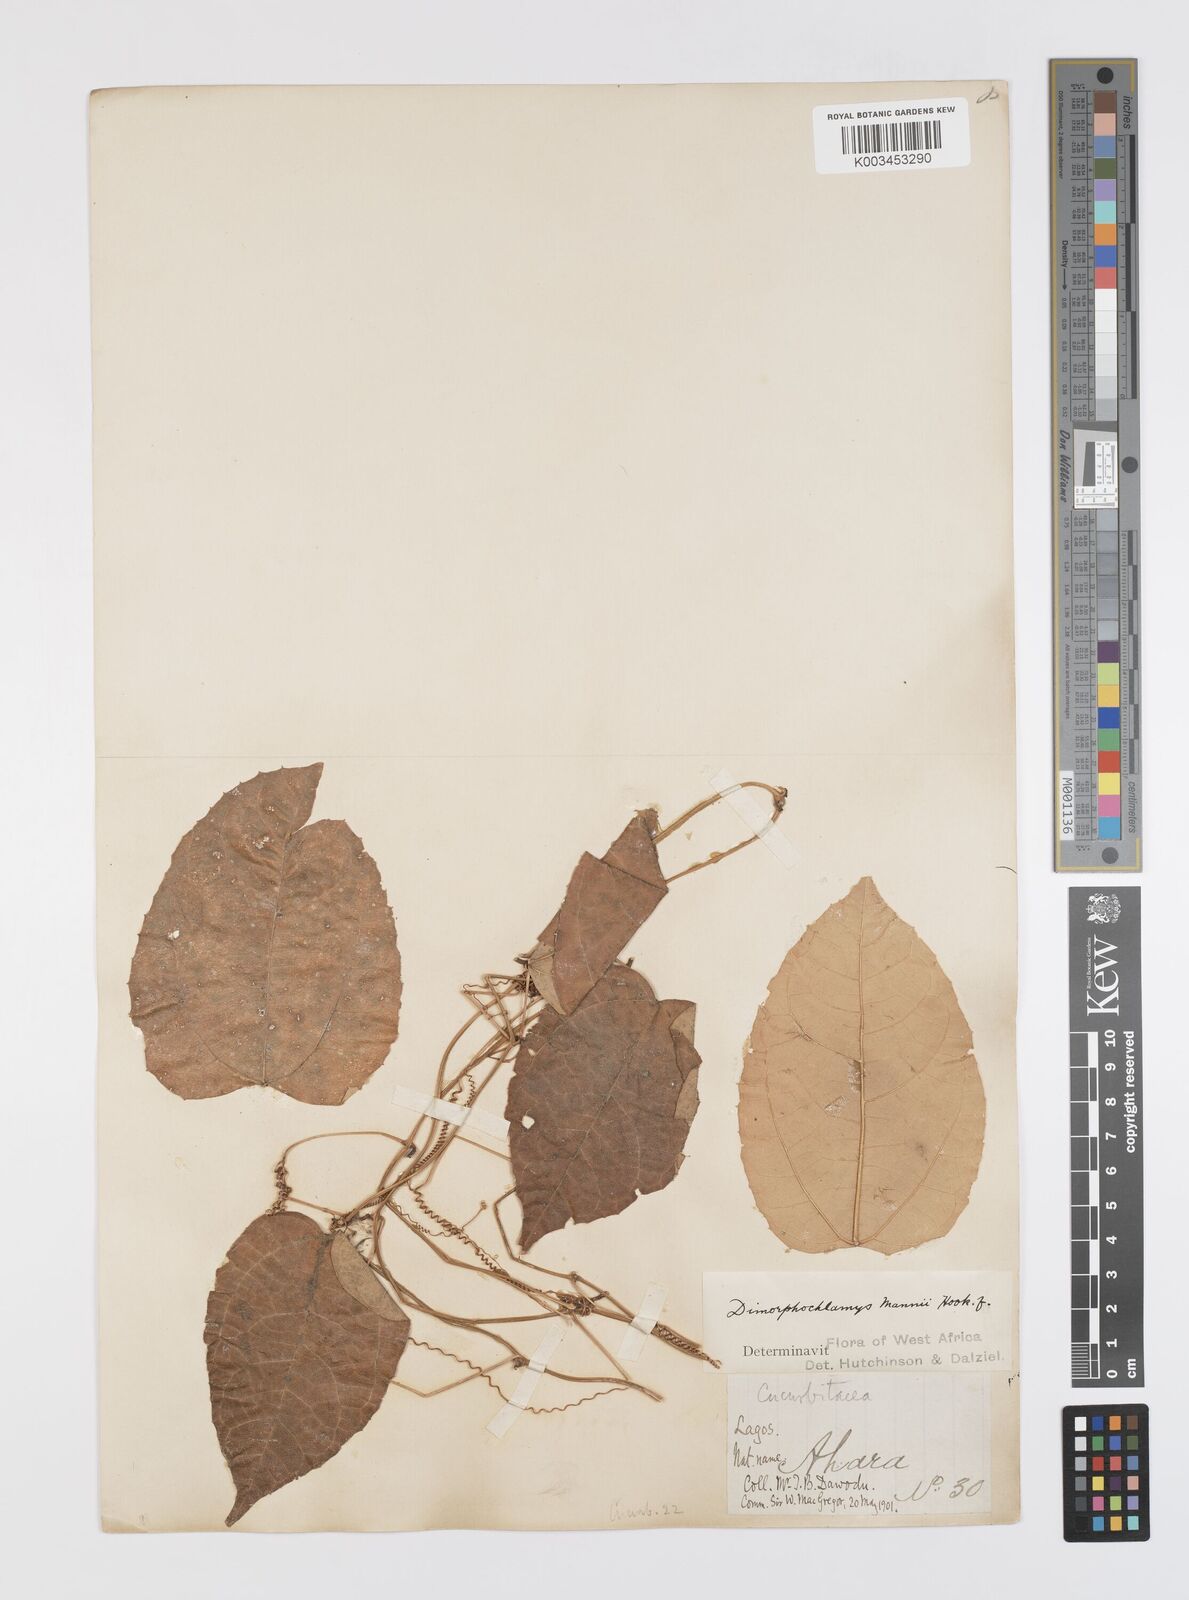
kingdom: Plantae
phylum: Tracheophyta
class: Magnoliopsida
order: Cucurbitales
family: Cucurbitaceae
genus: Momordica
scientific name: Momordica cabrae
